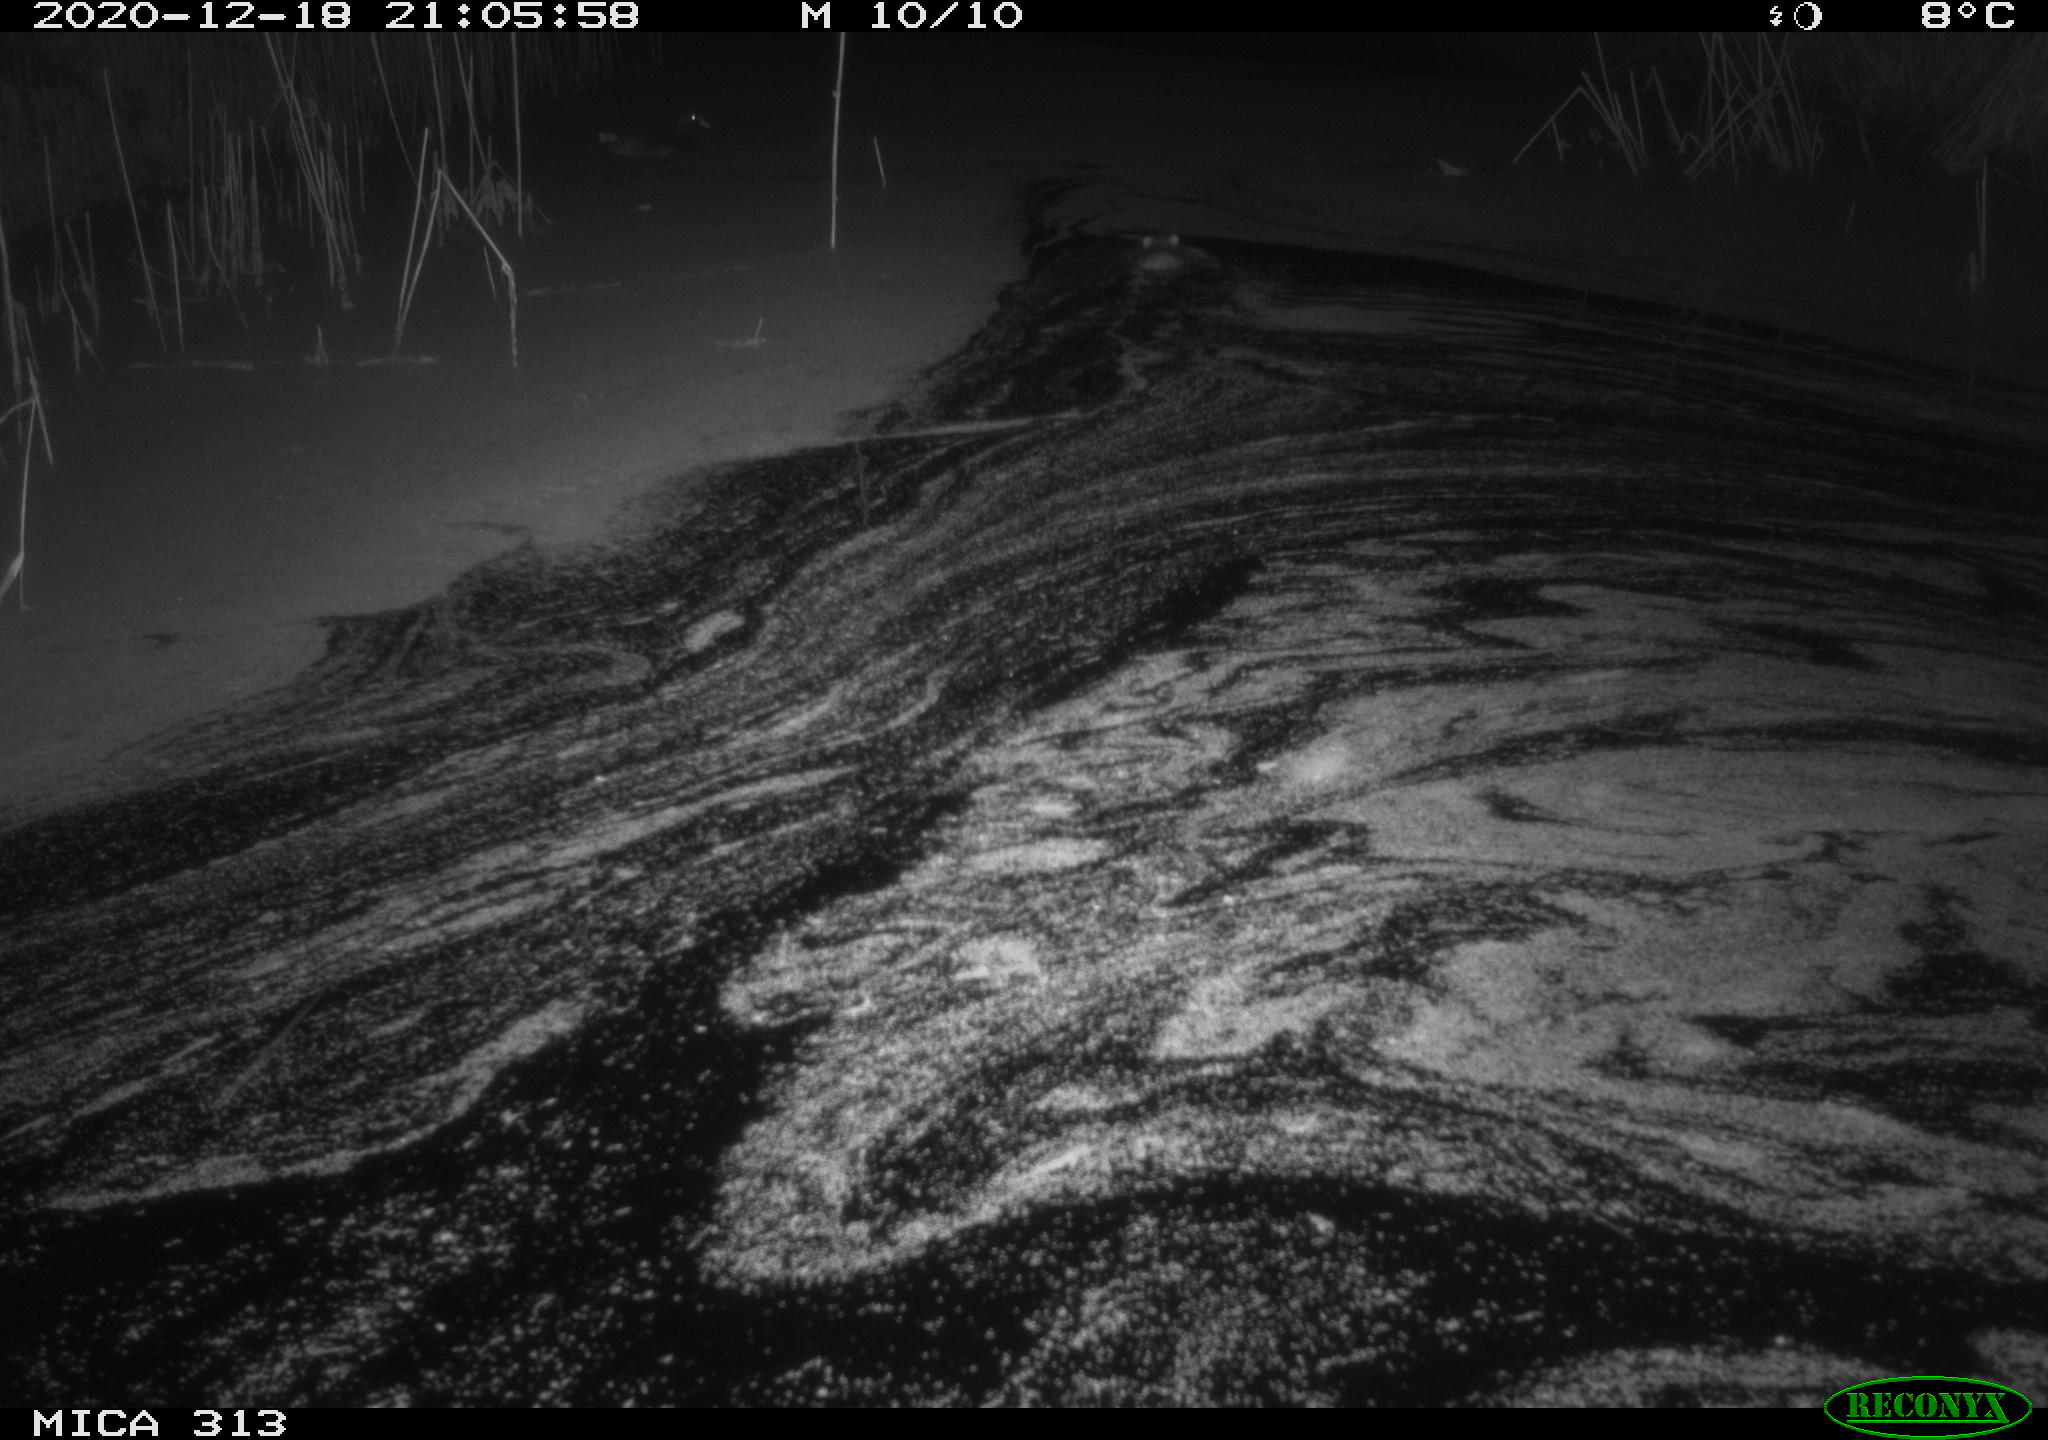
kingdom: Animalia
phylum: Chordata
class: Mammalia
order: Rodentia
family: Muridae
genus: Rattus
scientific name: Rattus norvegicus
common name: Brown rat
